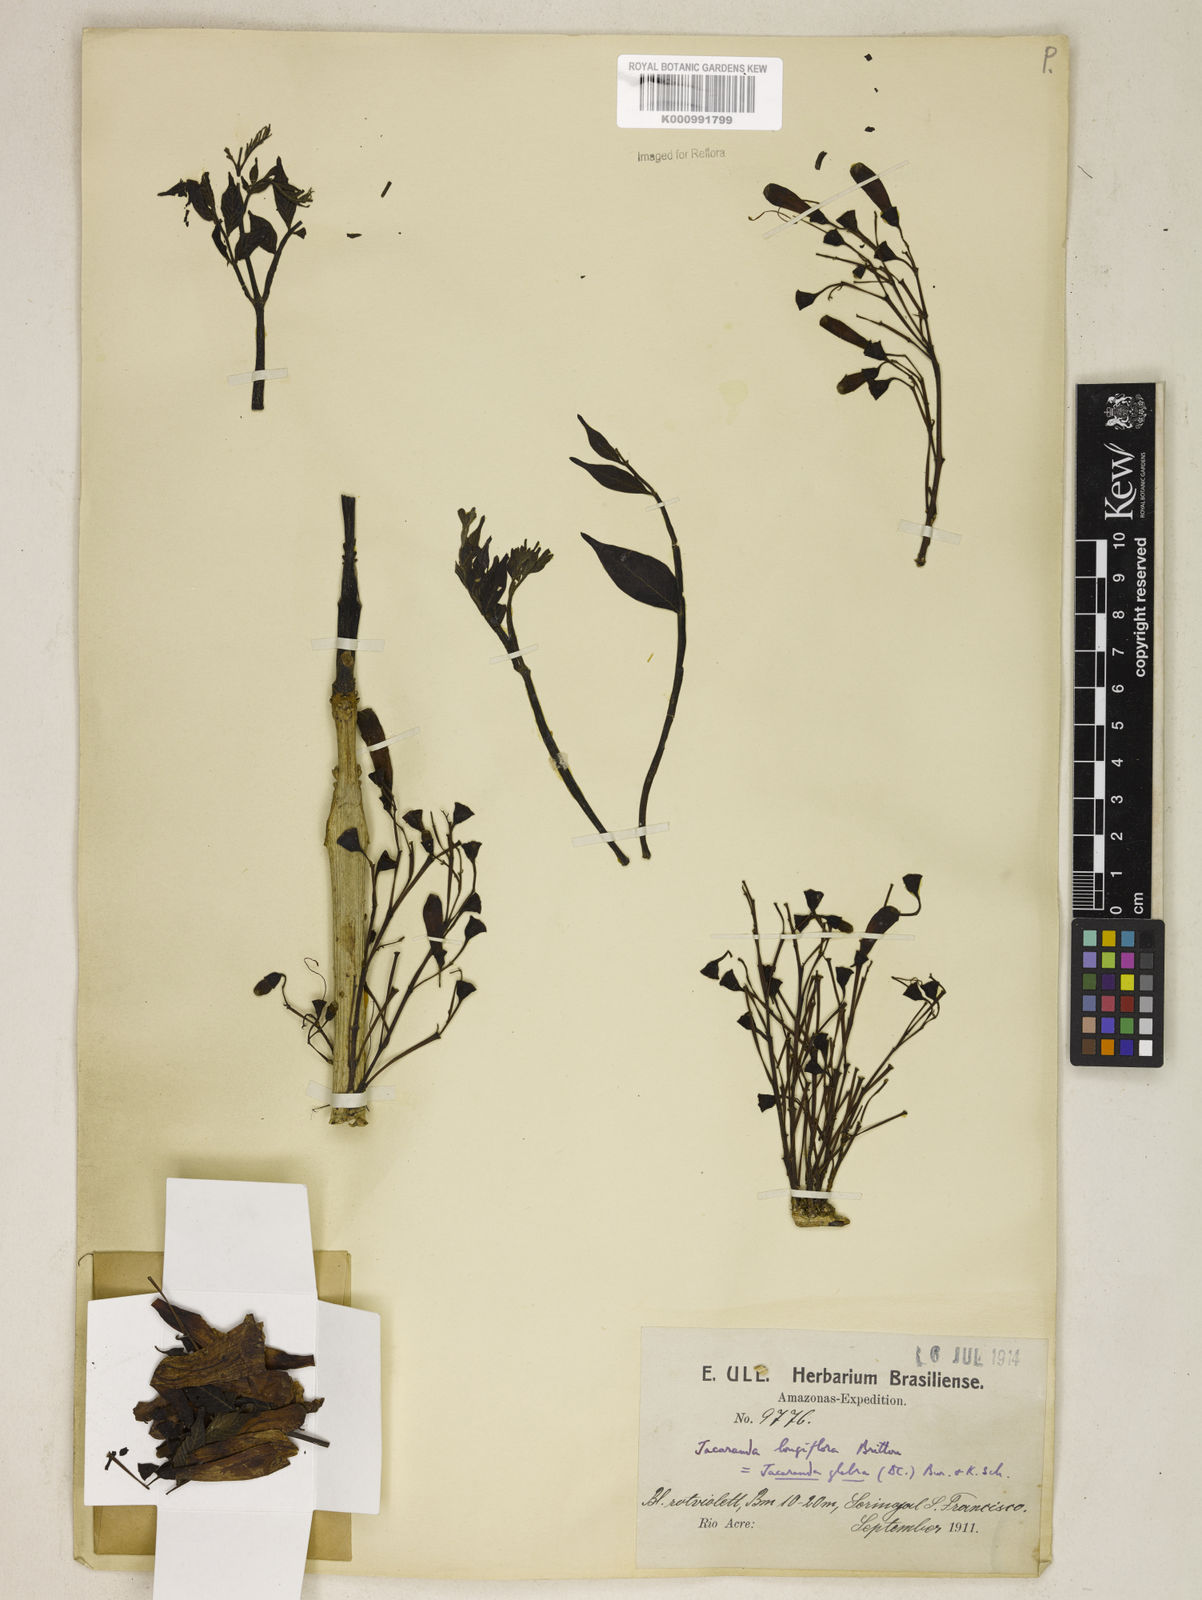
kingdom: Plantae
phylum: Tracheophyta
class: Magnoliopsida
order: Lamiales
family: Bignoniaceae
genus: Jacaranda
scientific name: Jacaranda glabra
